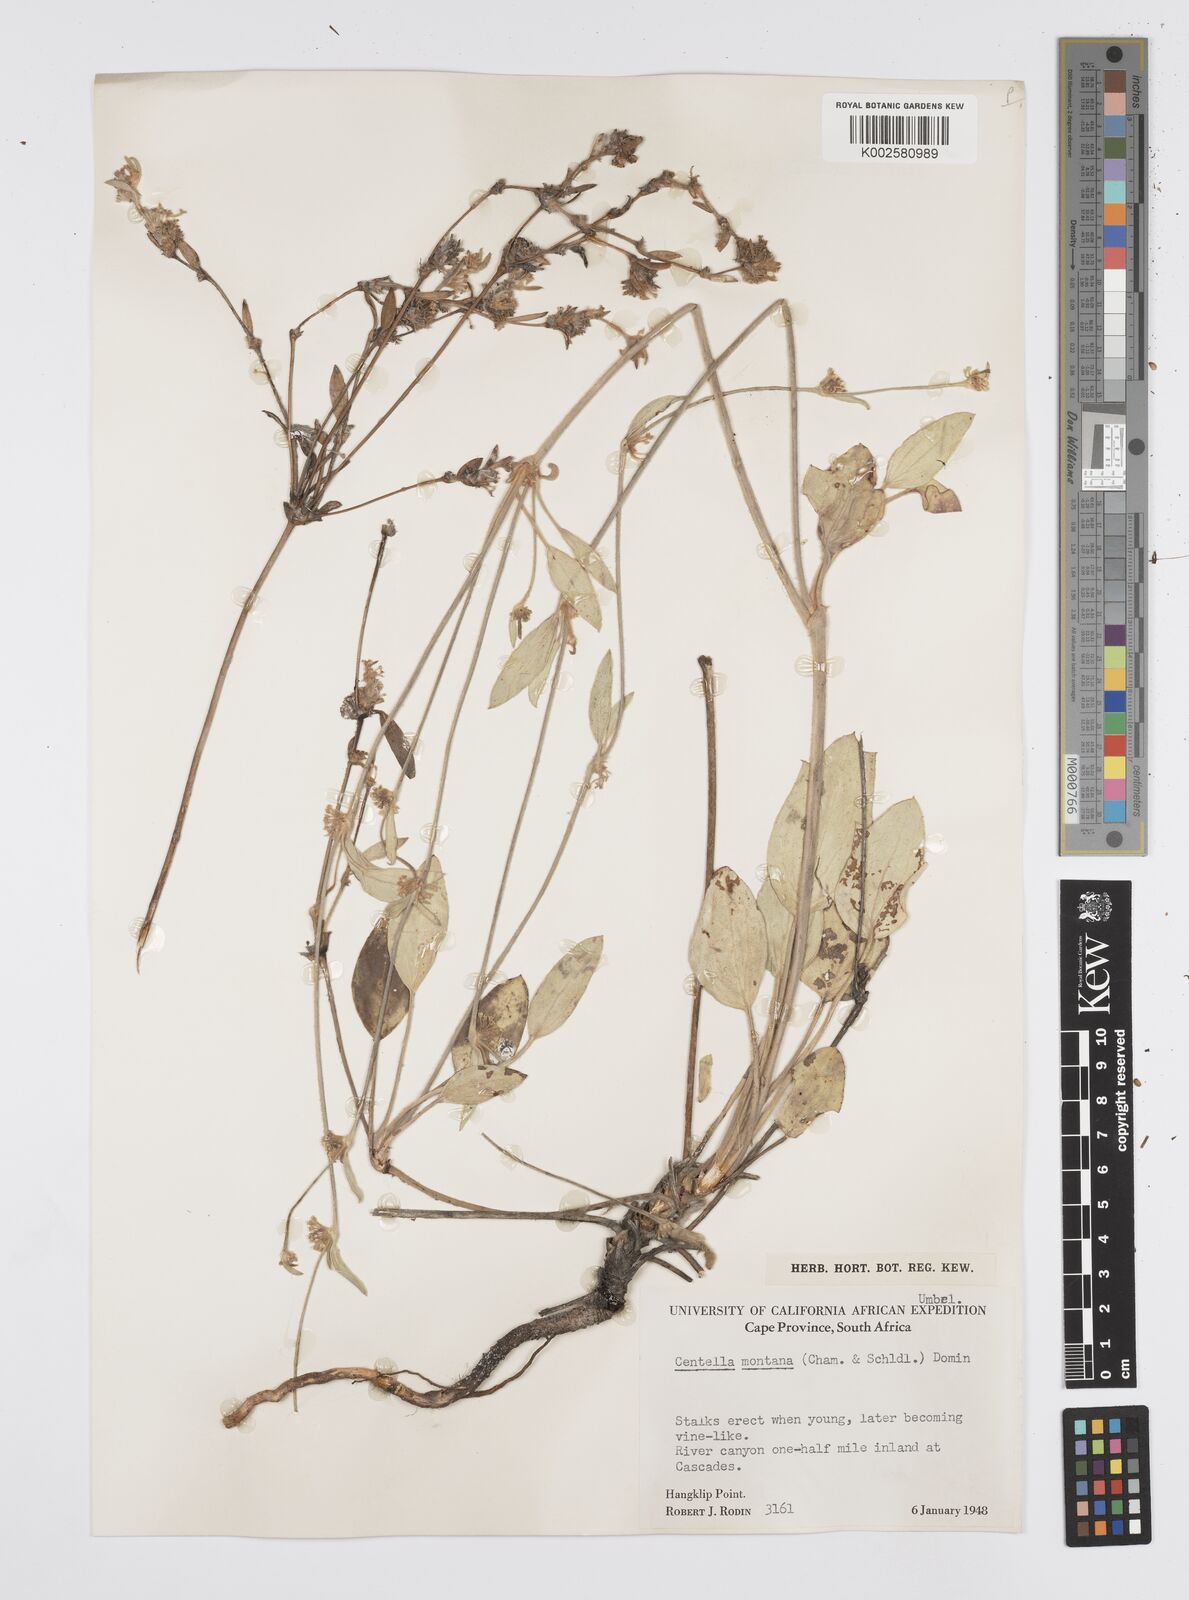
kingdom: Plantae
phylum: Tracheophyta
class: Magnoliopsida
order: Apiales
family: Apiaceae
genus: Centella
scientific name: Centella montana
